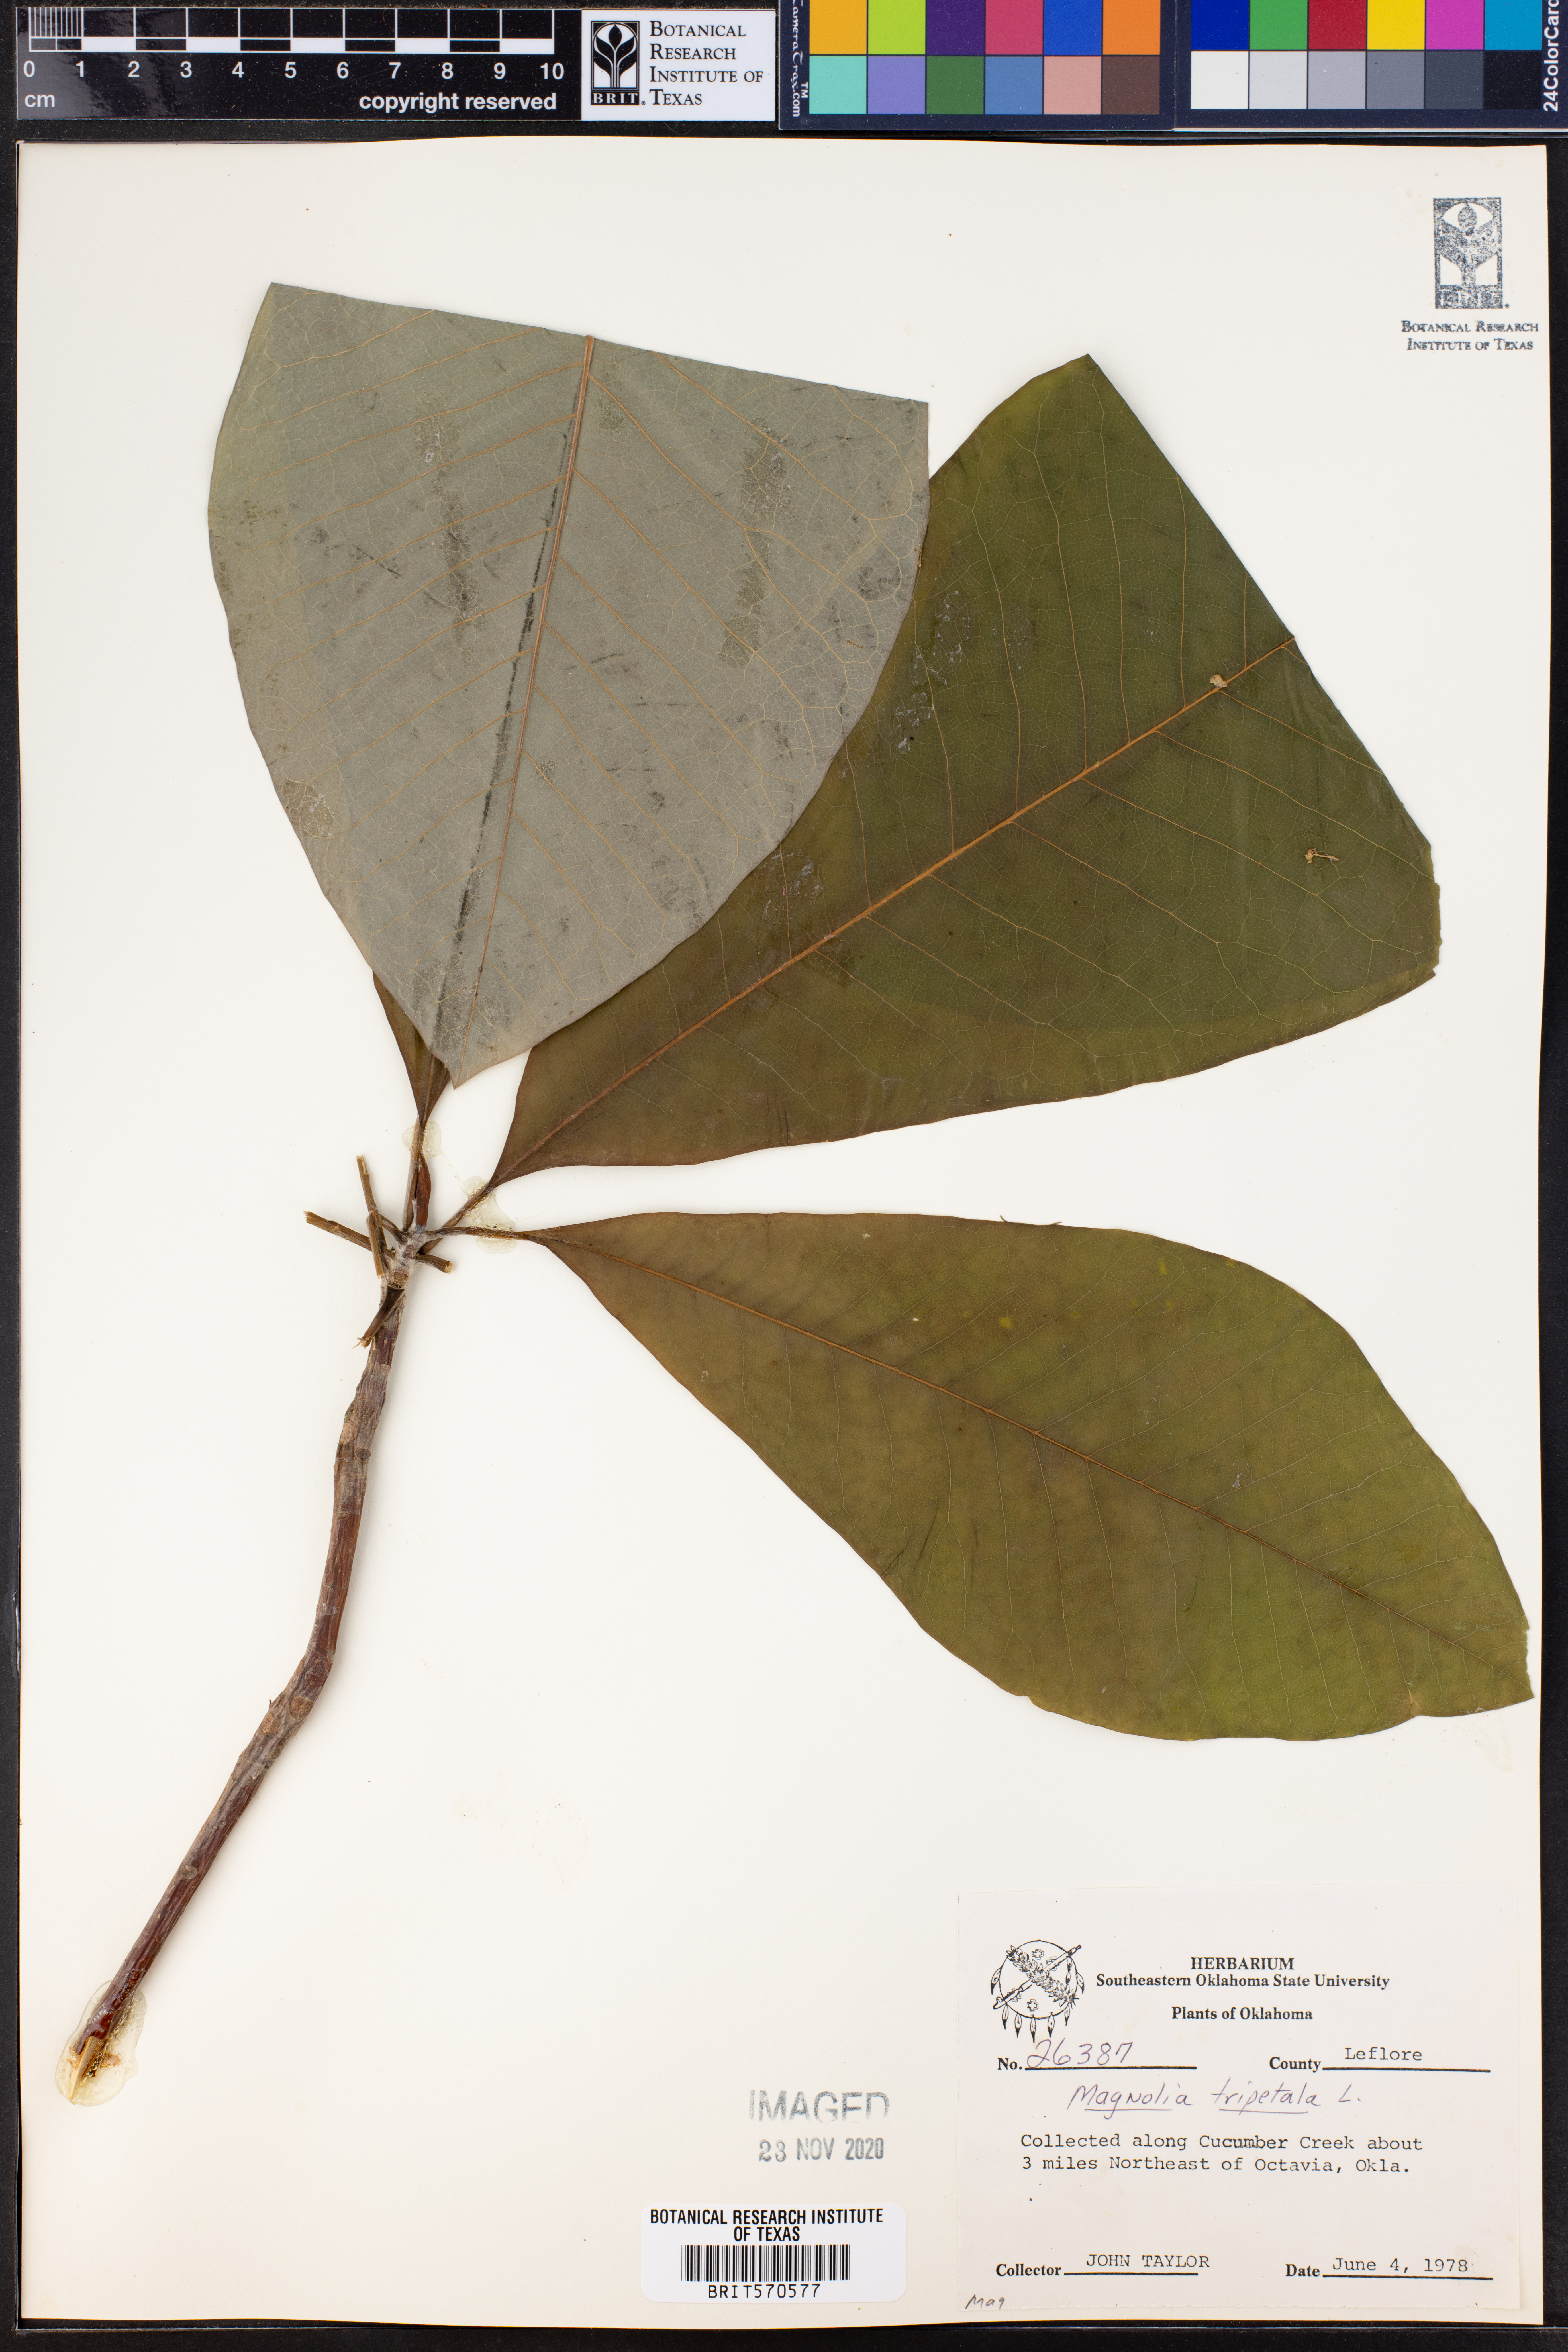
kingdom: Plantae
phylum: Tracheophyta
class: Magnoliopsida
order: Magnoliales
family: Magnoliaceae
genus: Magnolia
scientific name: Magnolia tripetala
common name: Umbrella magnolia
